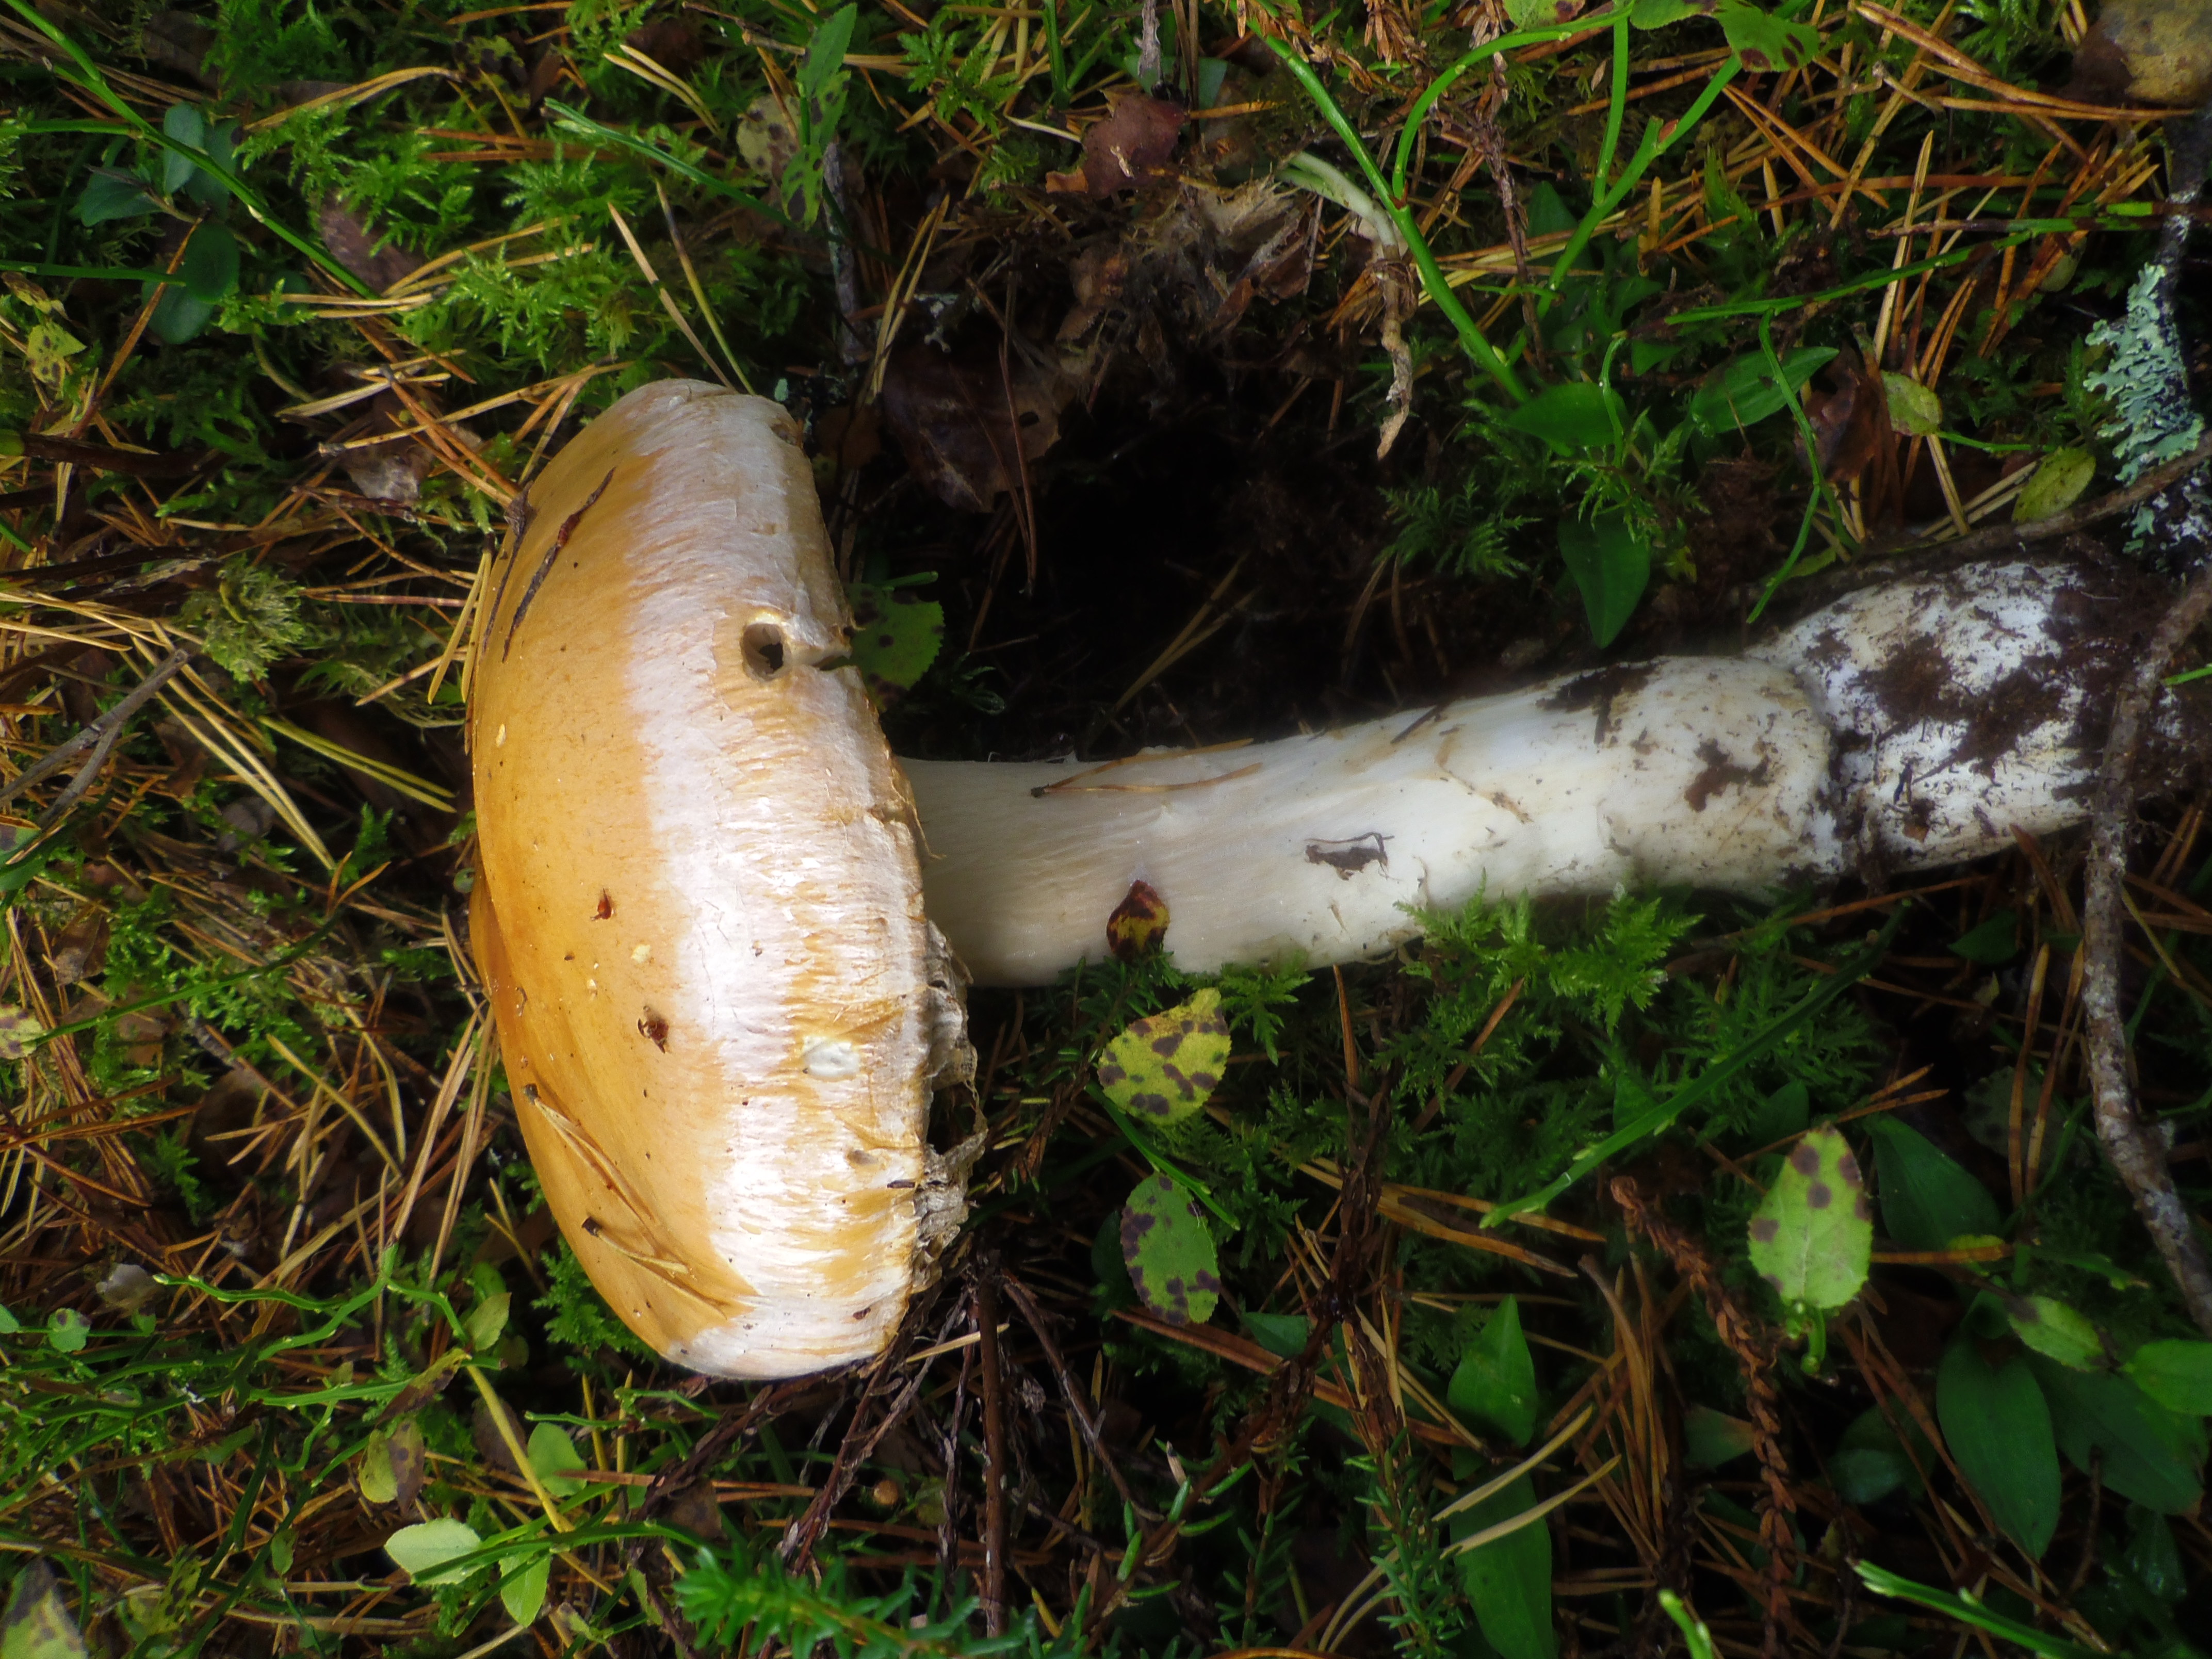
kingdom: Fungi
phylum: Basidiomycota
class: Agaricomycetes
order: Agaricales
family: Cortinariaceae
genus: Cortinarius
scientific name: Cortinarius claricolor
